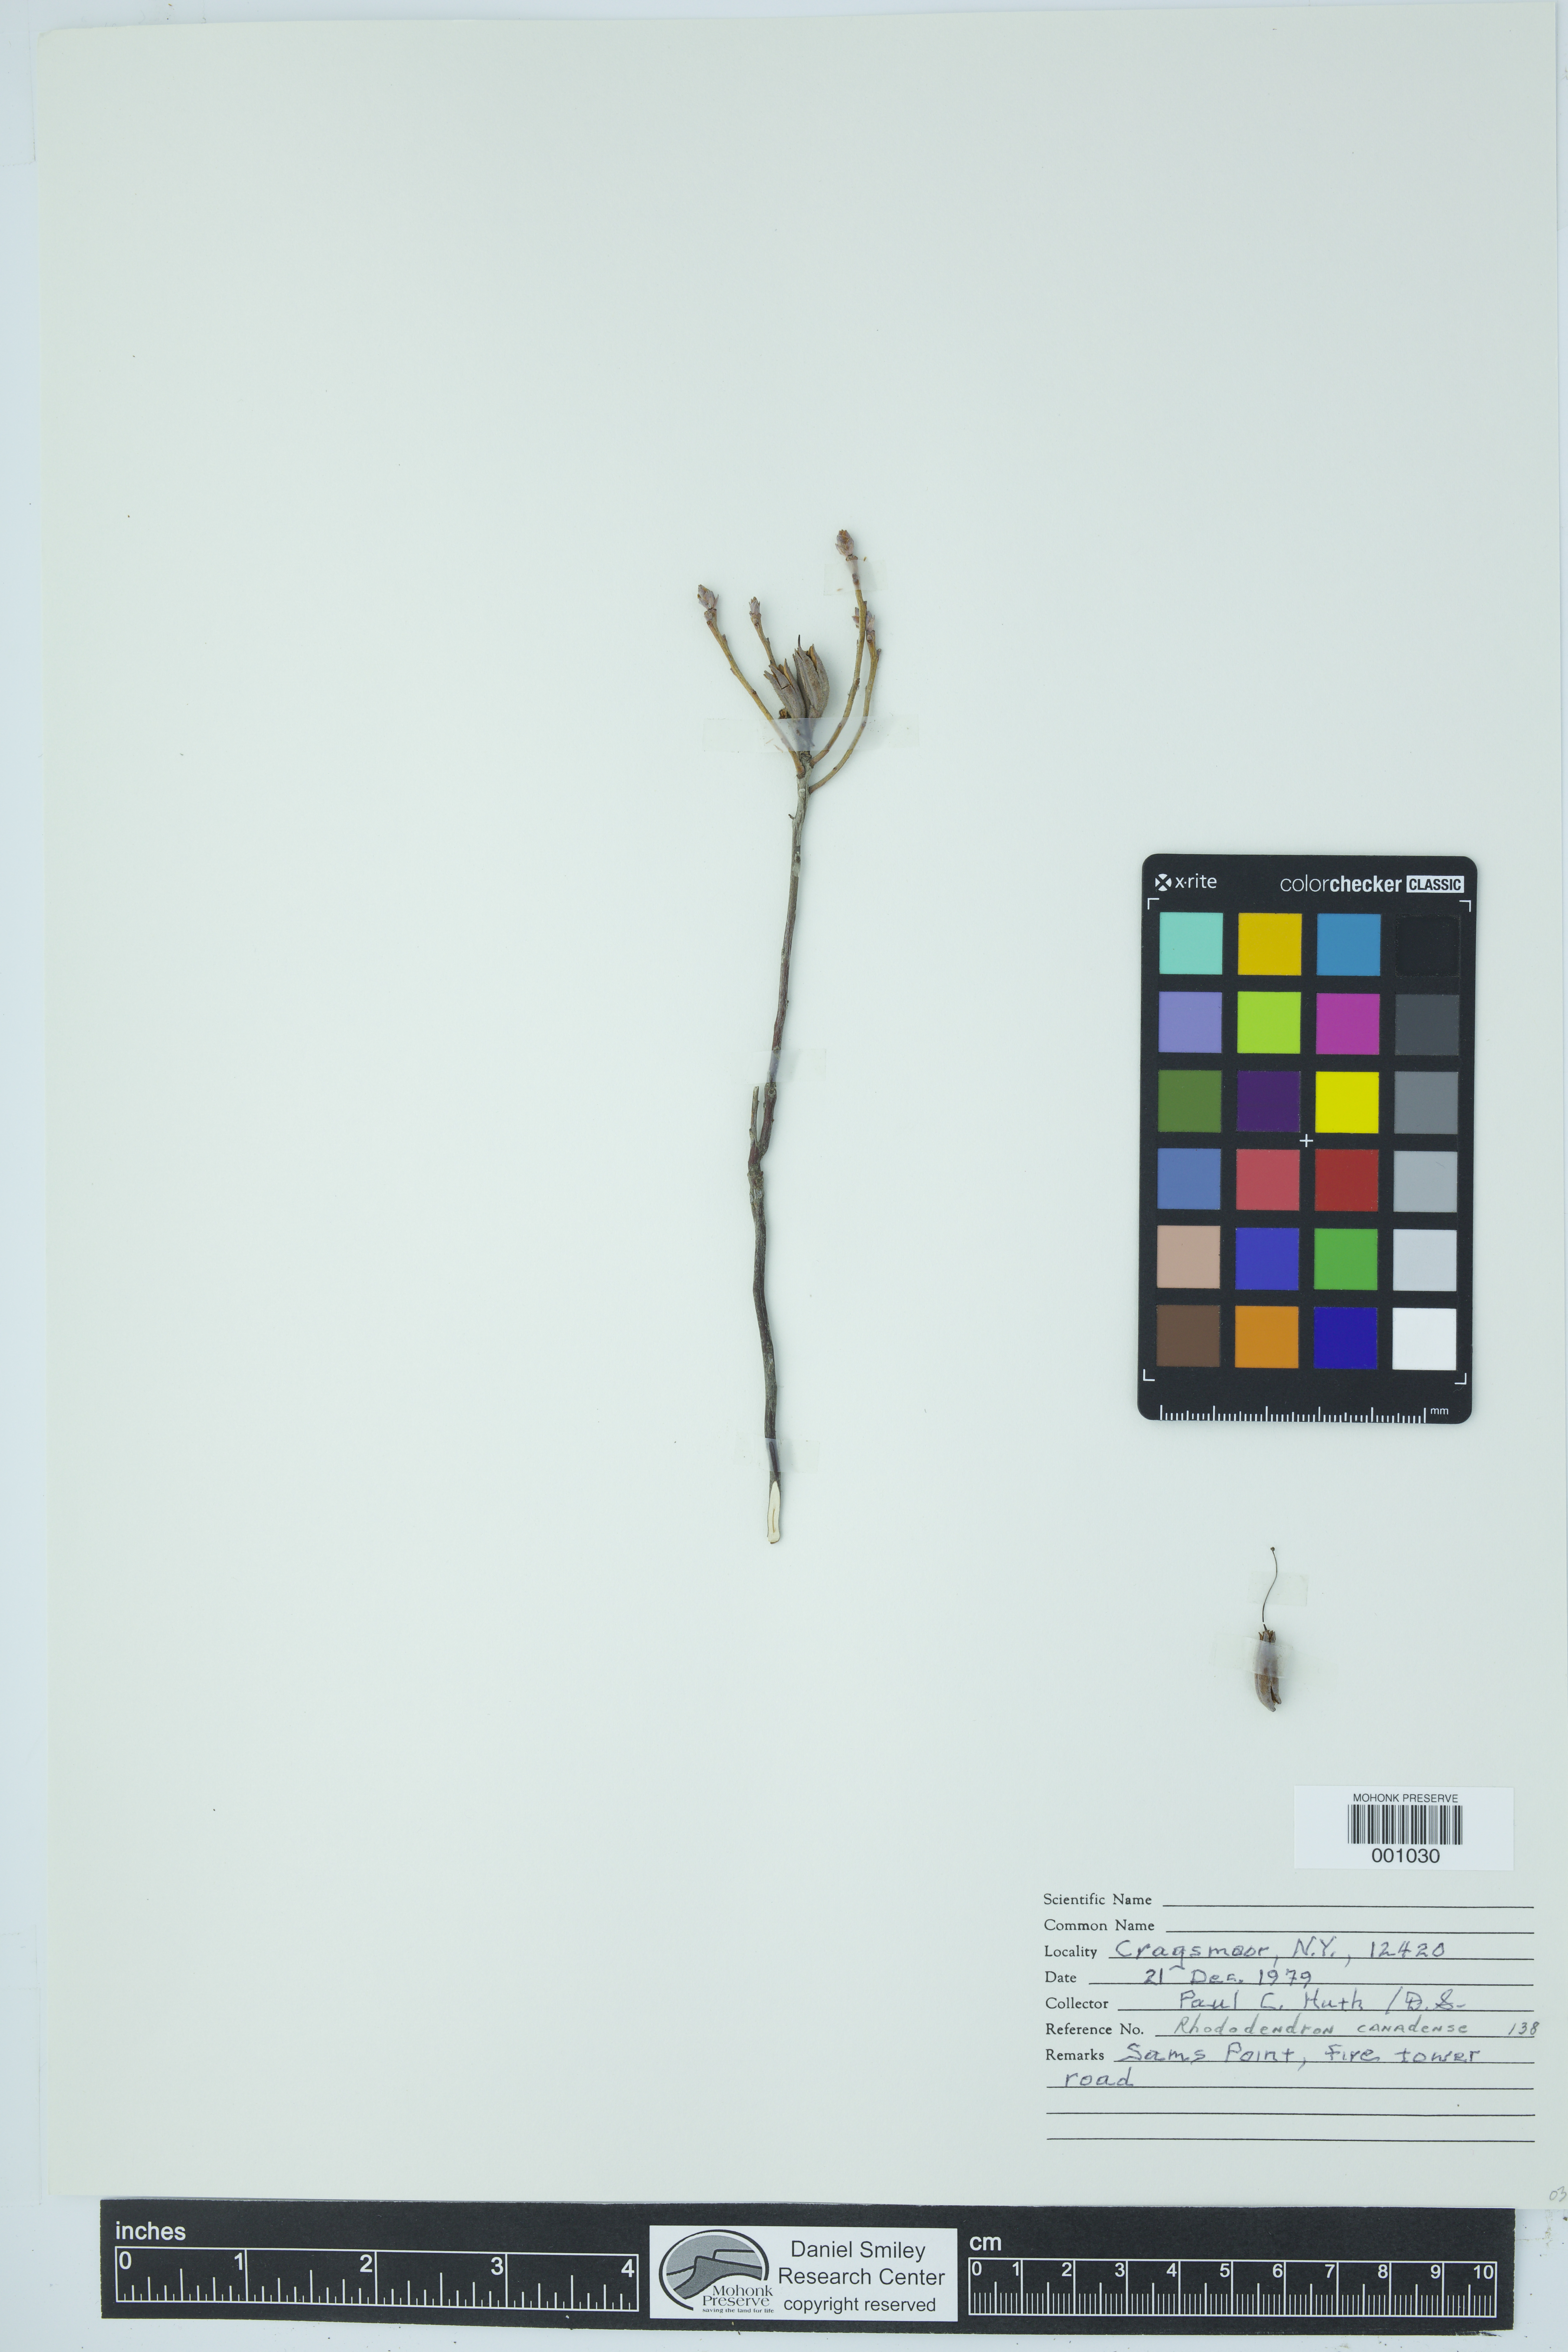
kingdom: Plantae
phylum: Tracheophyta
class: Magnoliopsida
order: Ericales
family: Ericaceae
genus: Rhododendron
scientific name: Rhododendron canadense
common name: Rhodora
